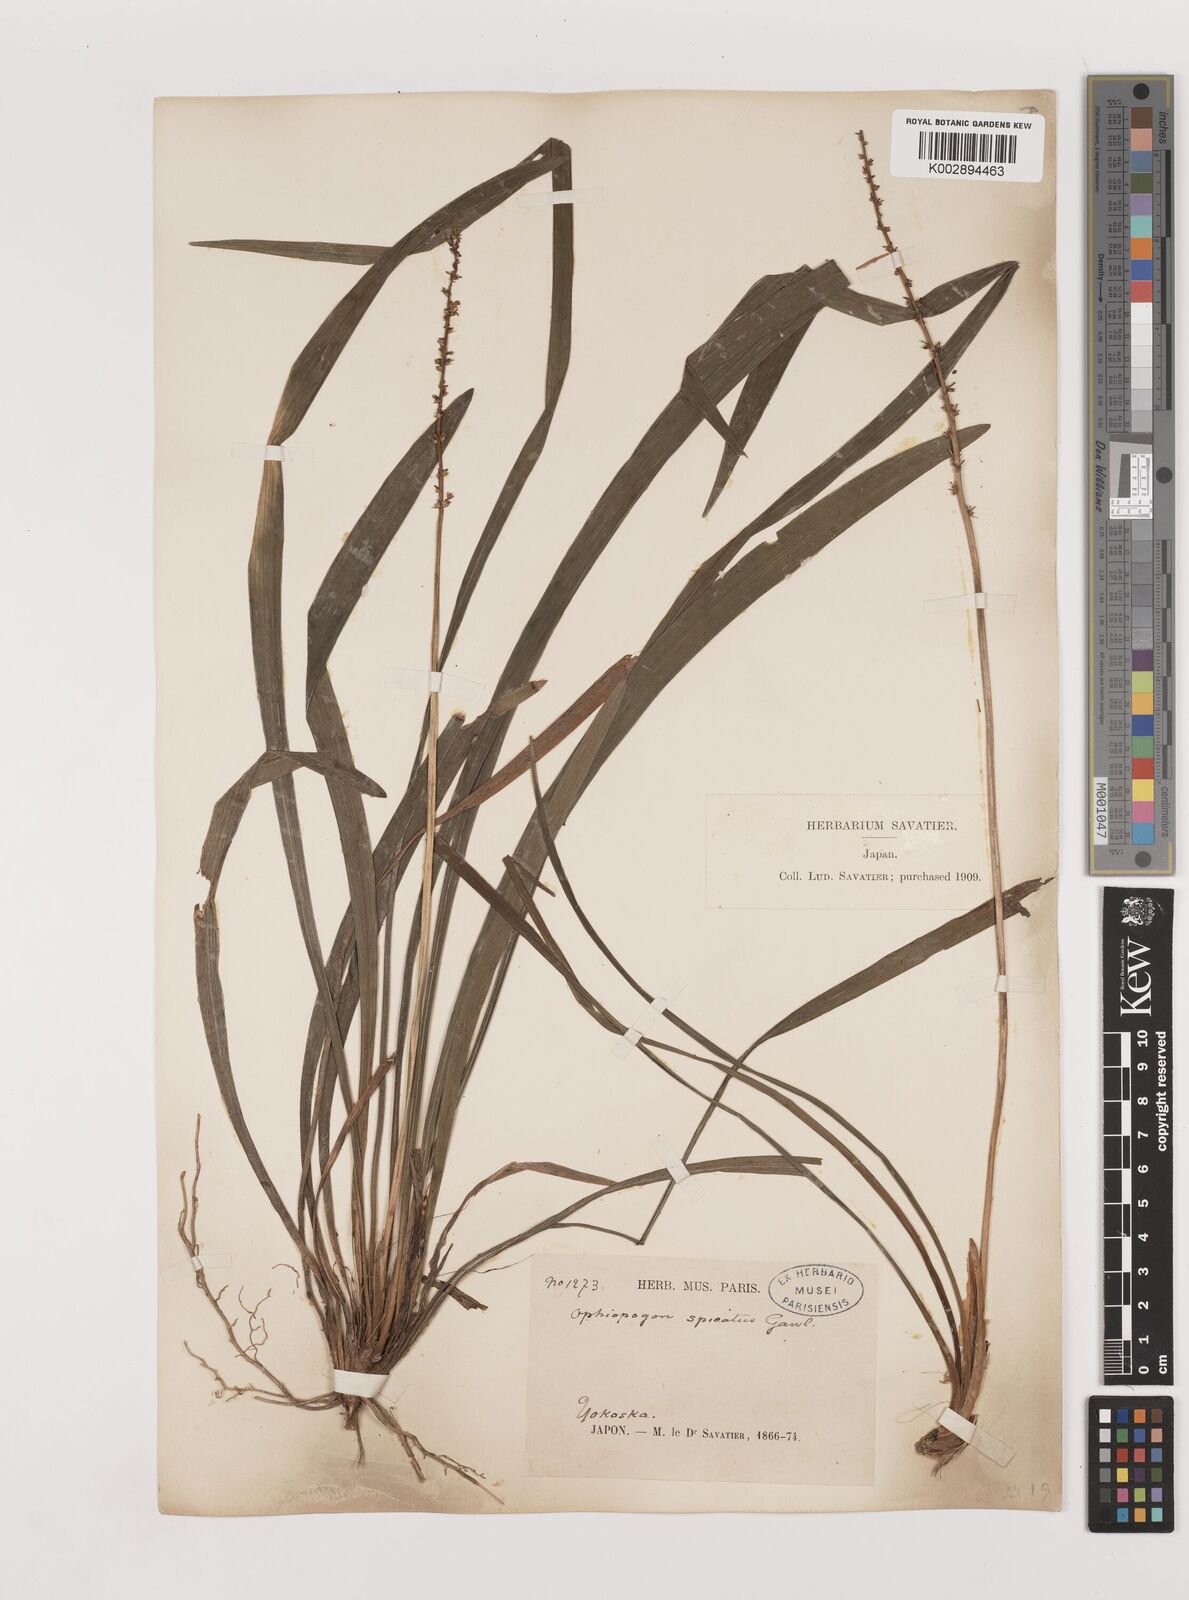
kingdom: Plantae
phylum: Tracheophyta
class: Liliopsida
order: Asparagales
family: Asparagaceae
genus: Liriope
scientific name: Liriope muscari
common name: Big blue lilyturf
